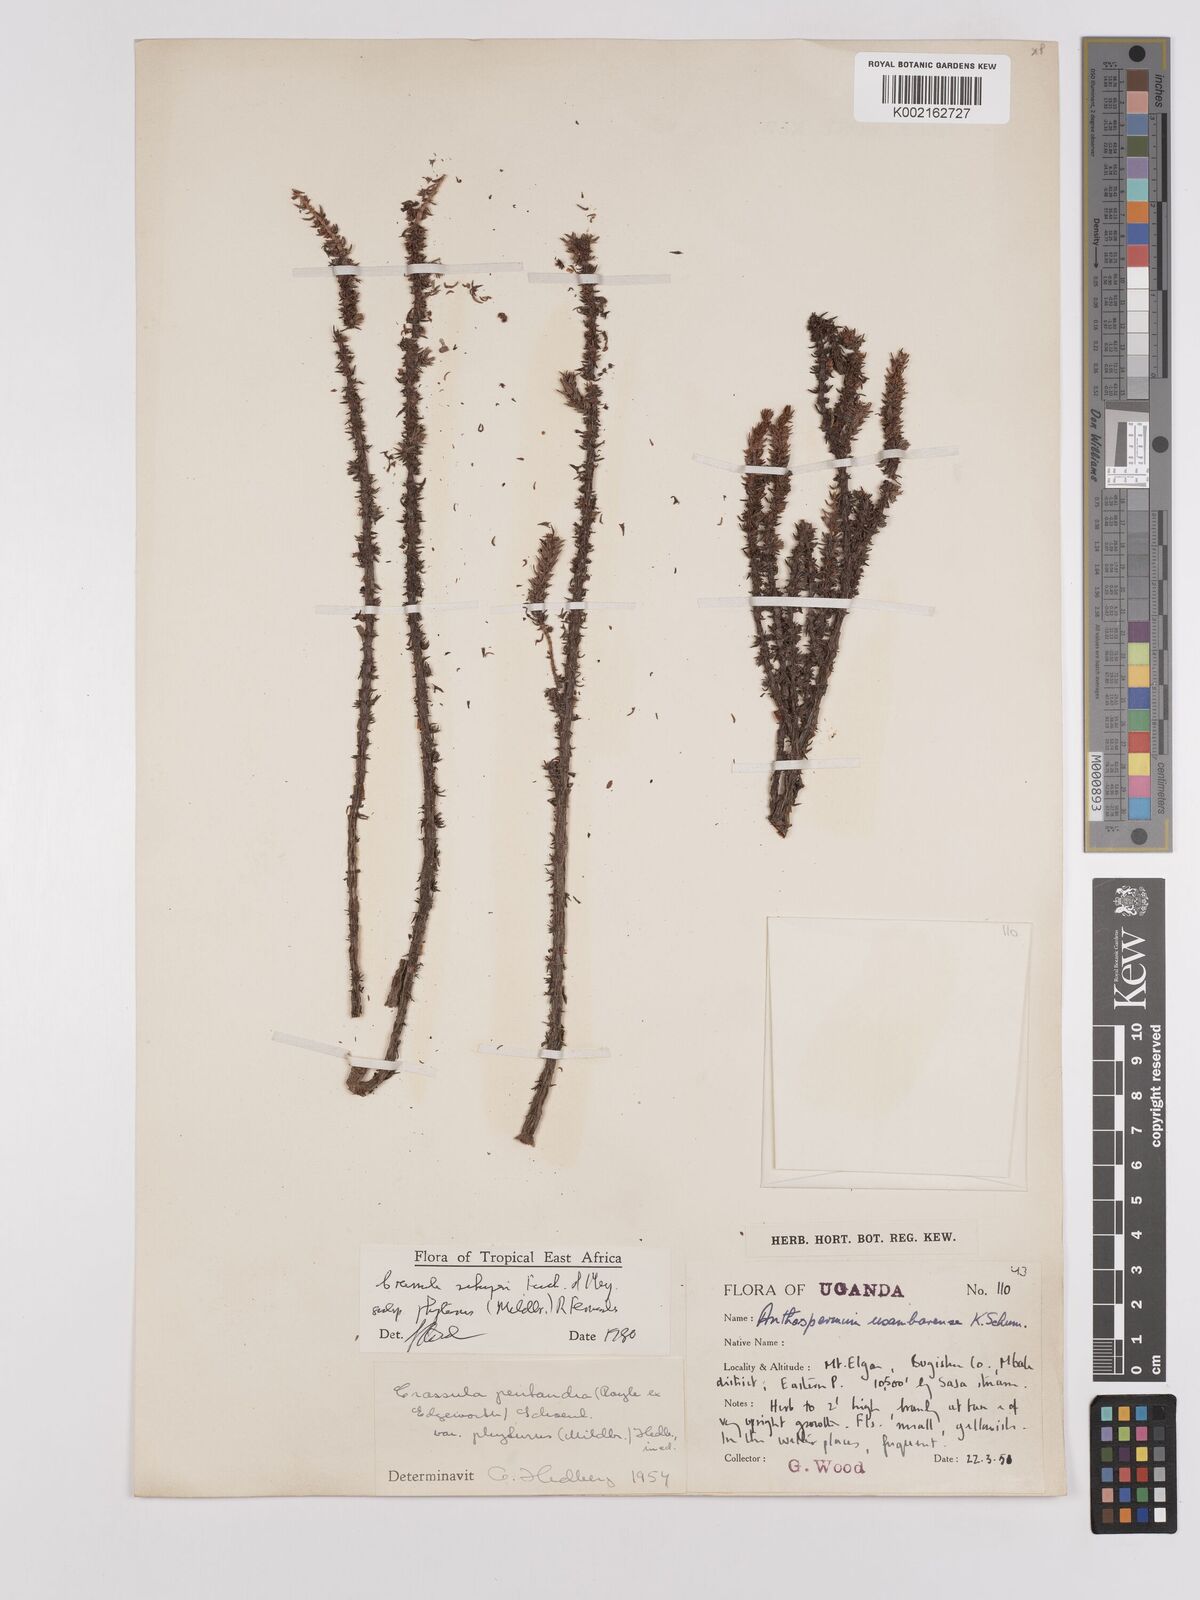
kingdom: Plantae
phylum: Tracheophyta
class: Magnoliopsida
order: Saxifragales
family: Crassulaceae
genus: Crassula
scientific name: Crassula schimperi
